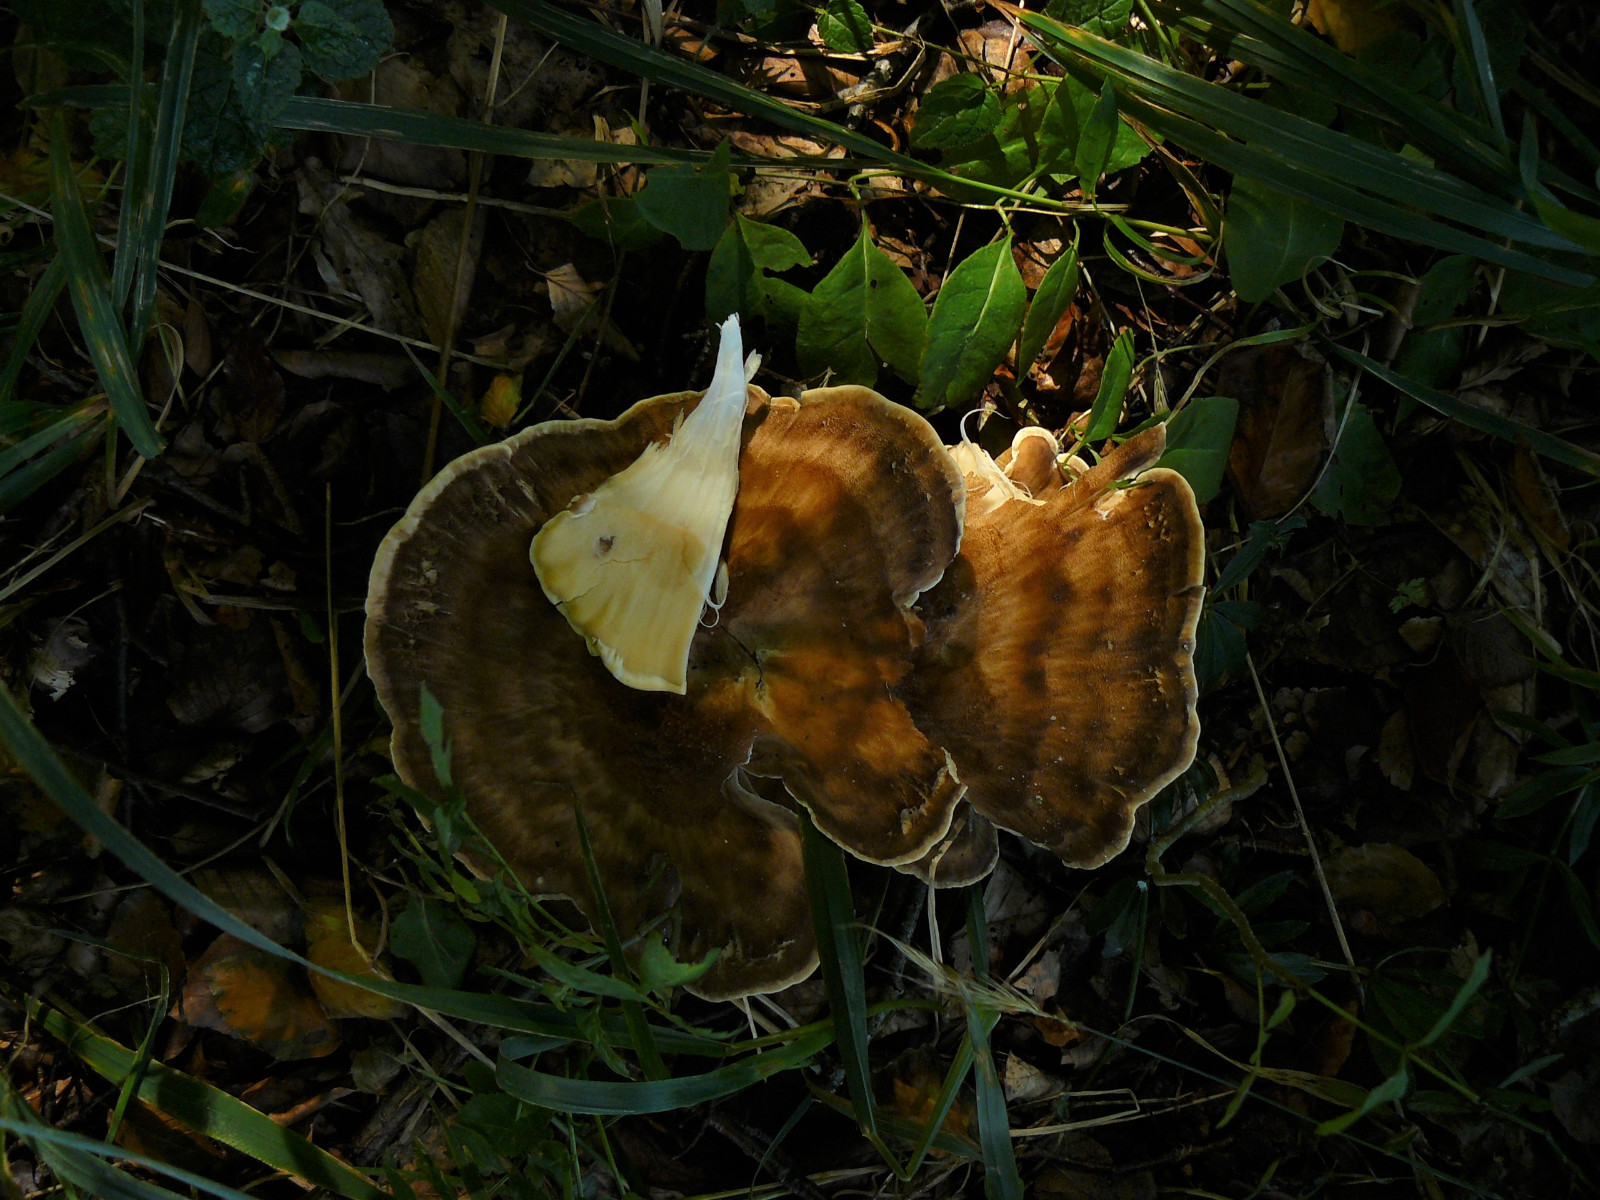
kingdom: Fungi
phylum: Basidiomycota
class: Agaricomycetes
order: Polyporales
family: Meripilaceae
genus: Meripilus
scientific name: Meripilus giganteus
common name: kæmpeporesvamp
